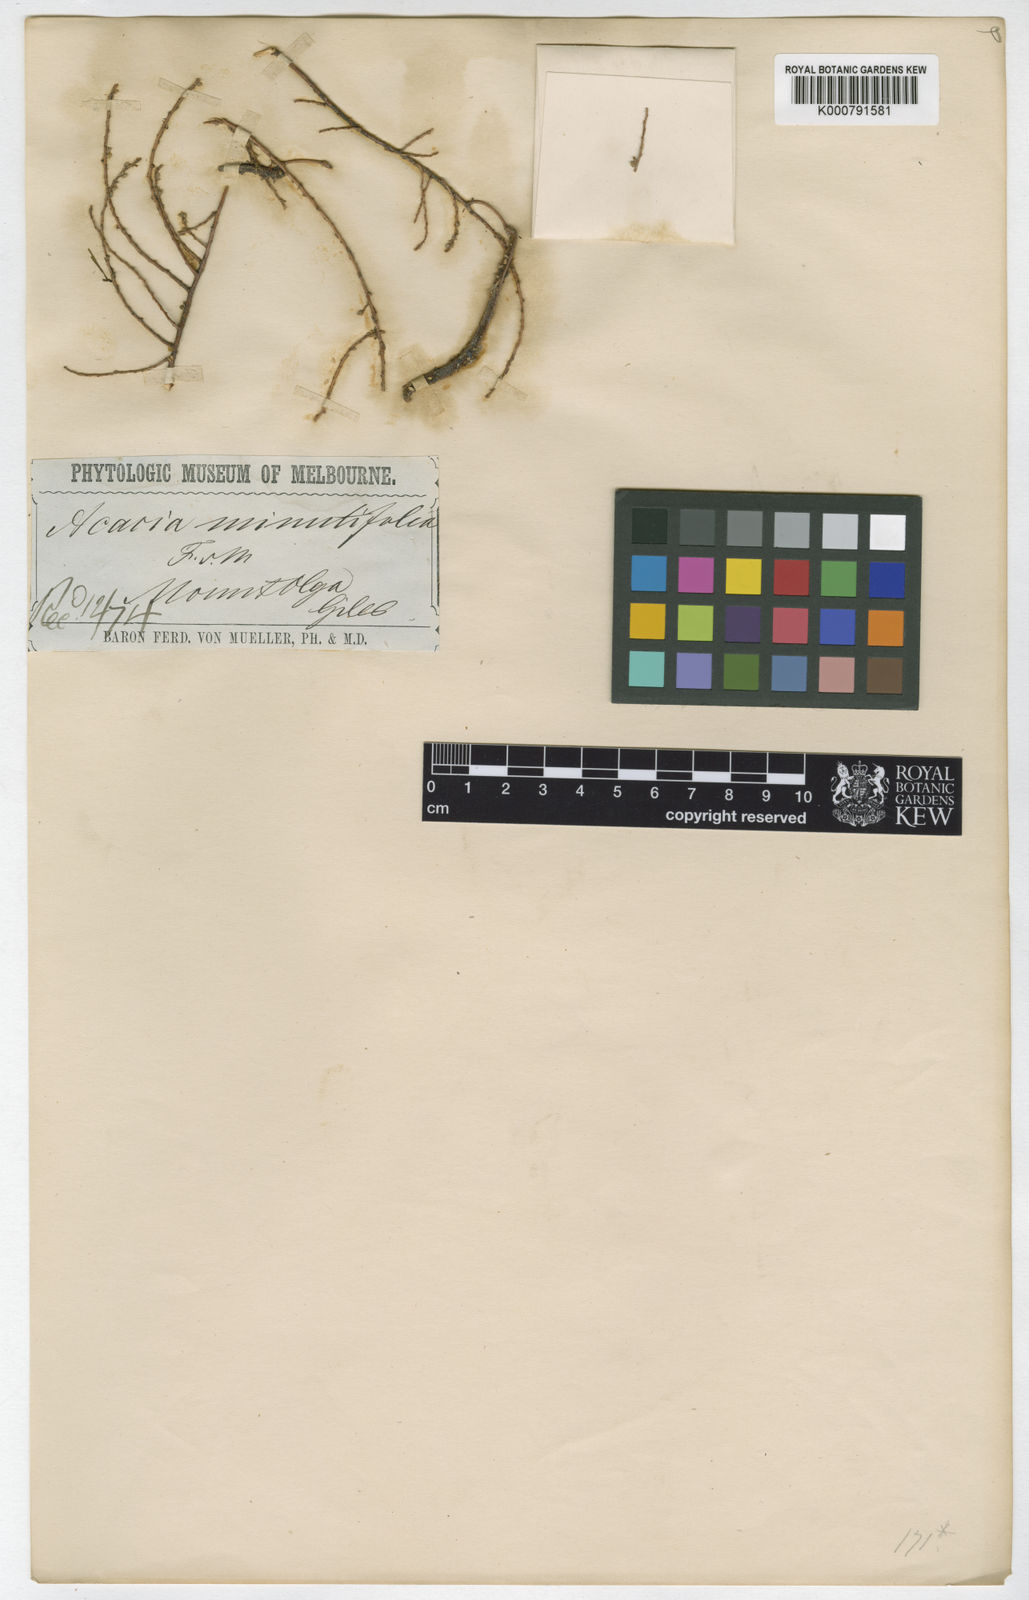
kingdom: Plantae
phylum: Tracheophyta
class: Magnoliopsida
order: Fabales
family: Fabaceae
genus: Acacia
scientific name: Acacia minutifolia
